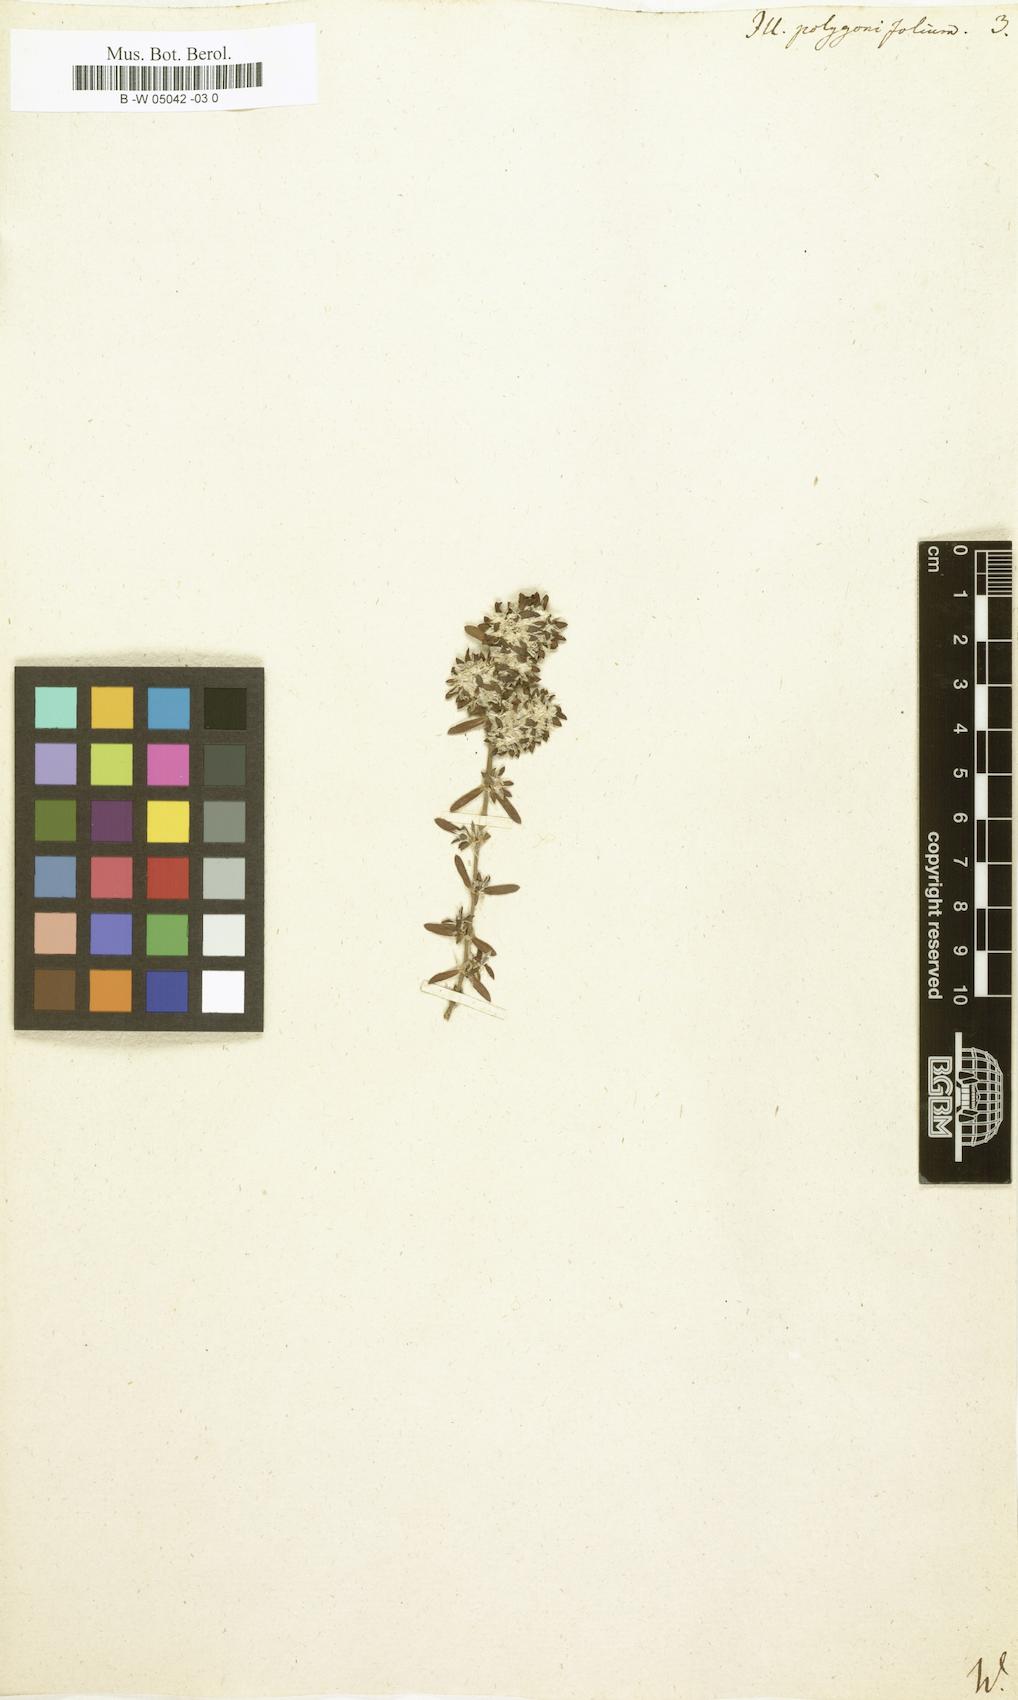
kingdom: Plantae
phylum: Tracheophyta
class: Magnoliopsida
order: Caryophyllales
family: Caryophyllaceae
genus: Paronychia
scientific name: Paronychia polygonifolia
